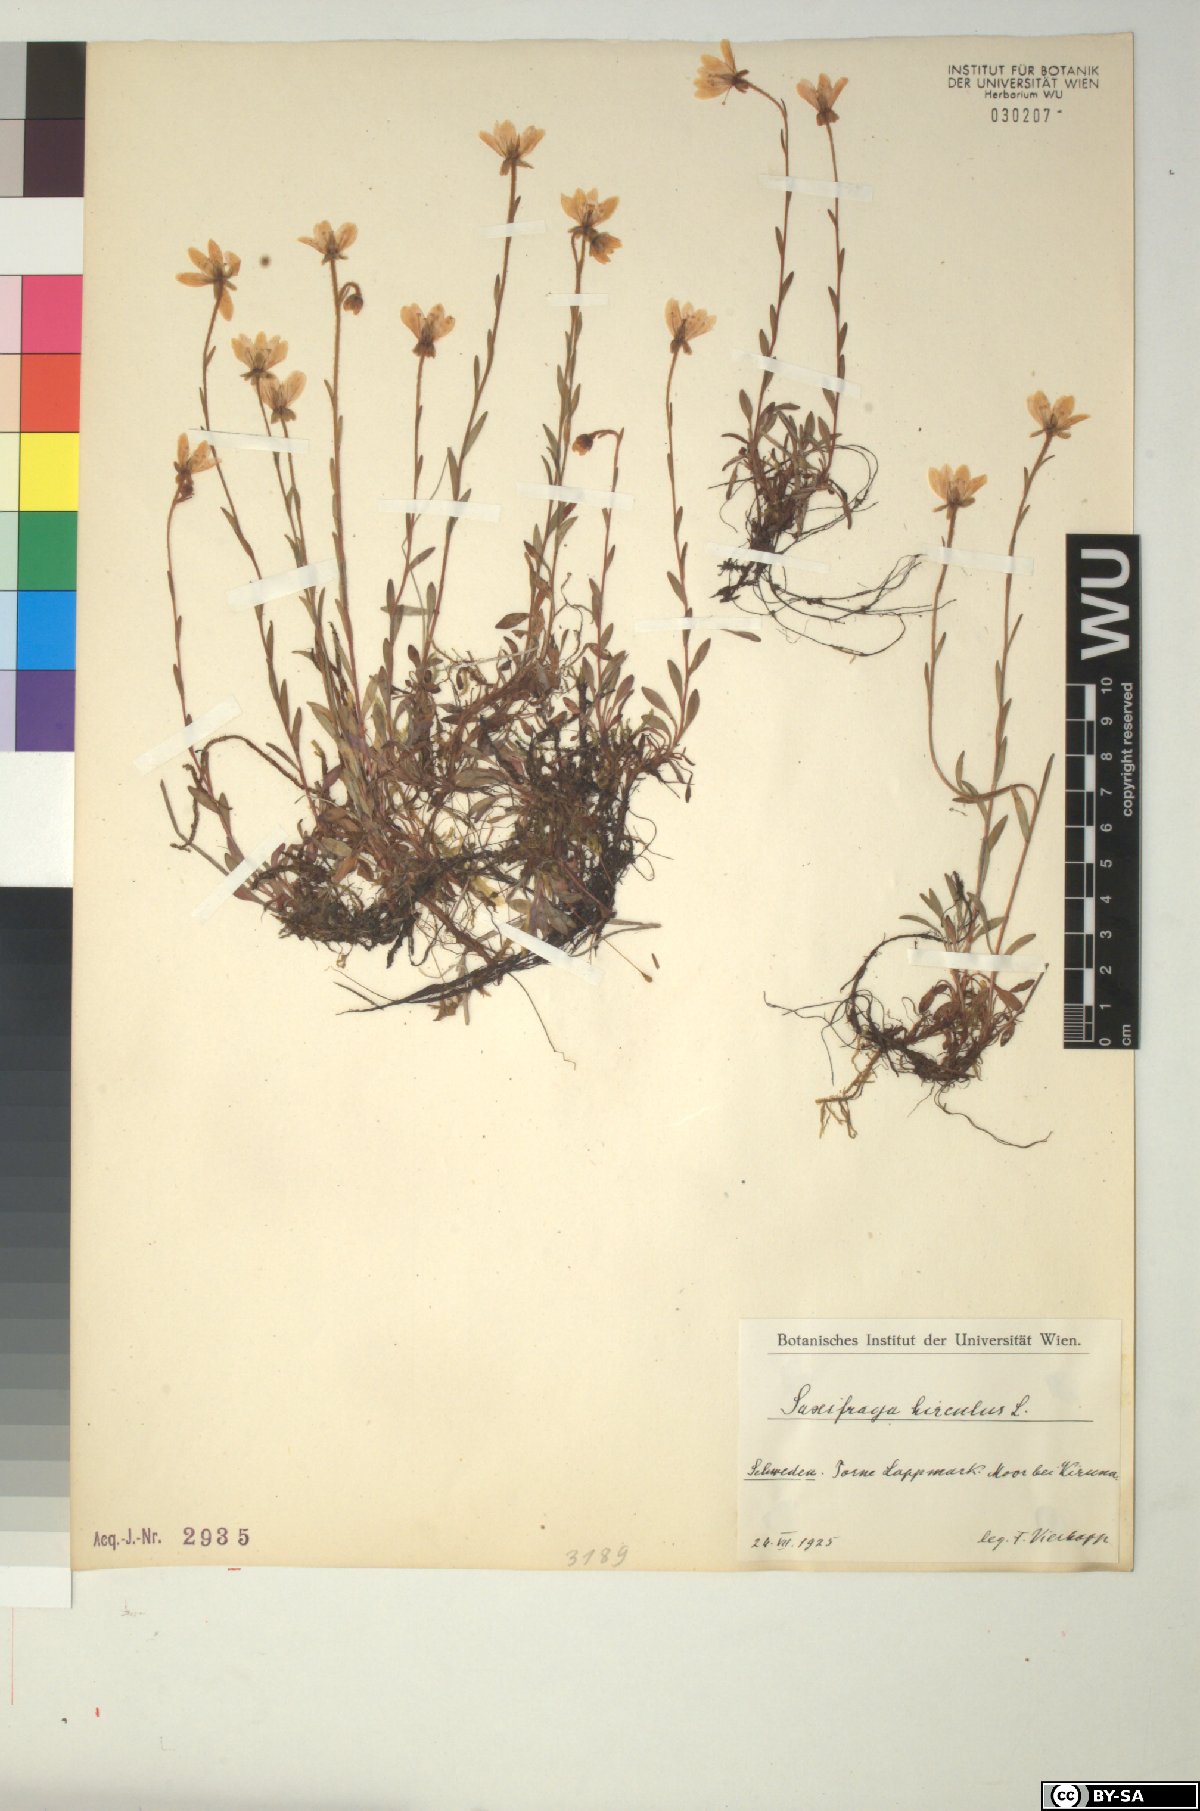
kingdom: Plantae
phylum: Tracheophyta
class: Magnoliopsida
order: Saxifragales
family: Saxifragaceae
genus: Saxifraga
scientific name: Saxifraga hirculus
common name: Yellow marsh saxifrage
